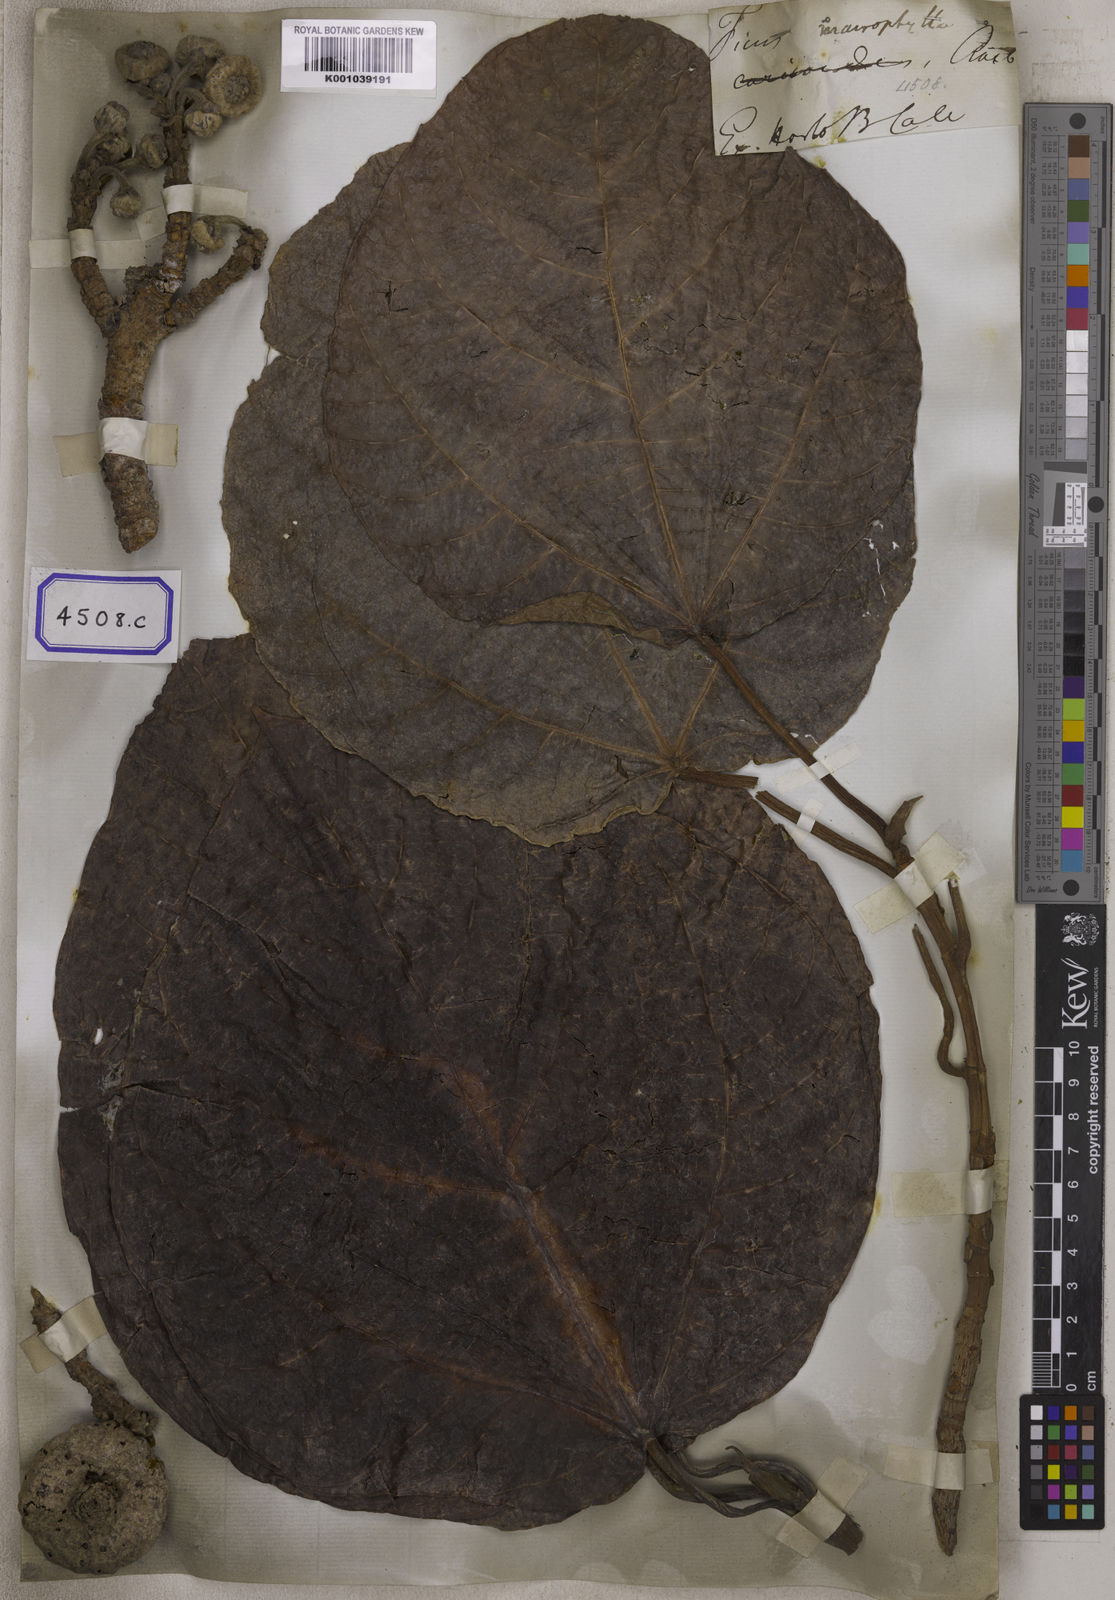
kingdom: Plantae
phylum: Tracheophyta
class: Magnoliopsida
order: Rosales
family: Moraceae
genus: Ficus
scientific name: Ficus
